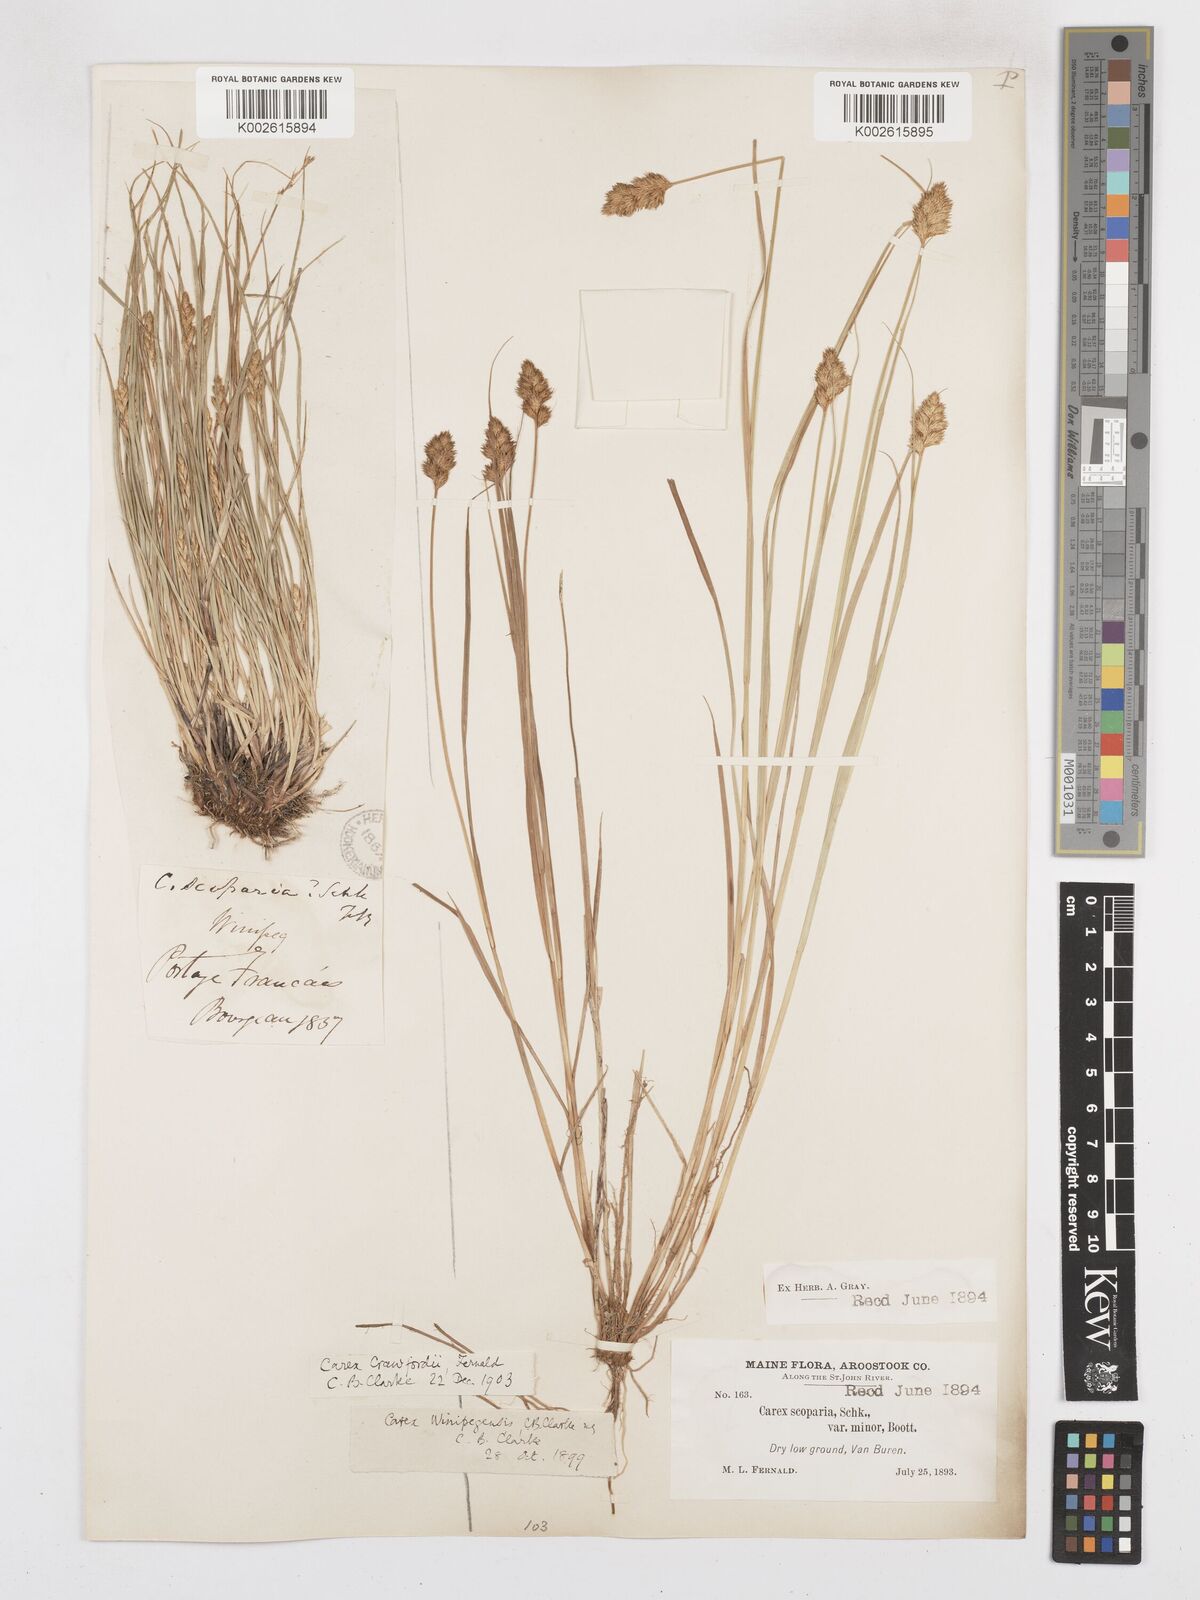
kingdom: Plantae
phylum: Tracheophyta
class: Liliopsida
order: Poales
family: Cyperaceae
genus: Carex
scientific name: Carex crawfordii
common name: Crawford's sedge
